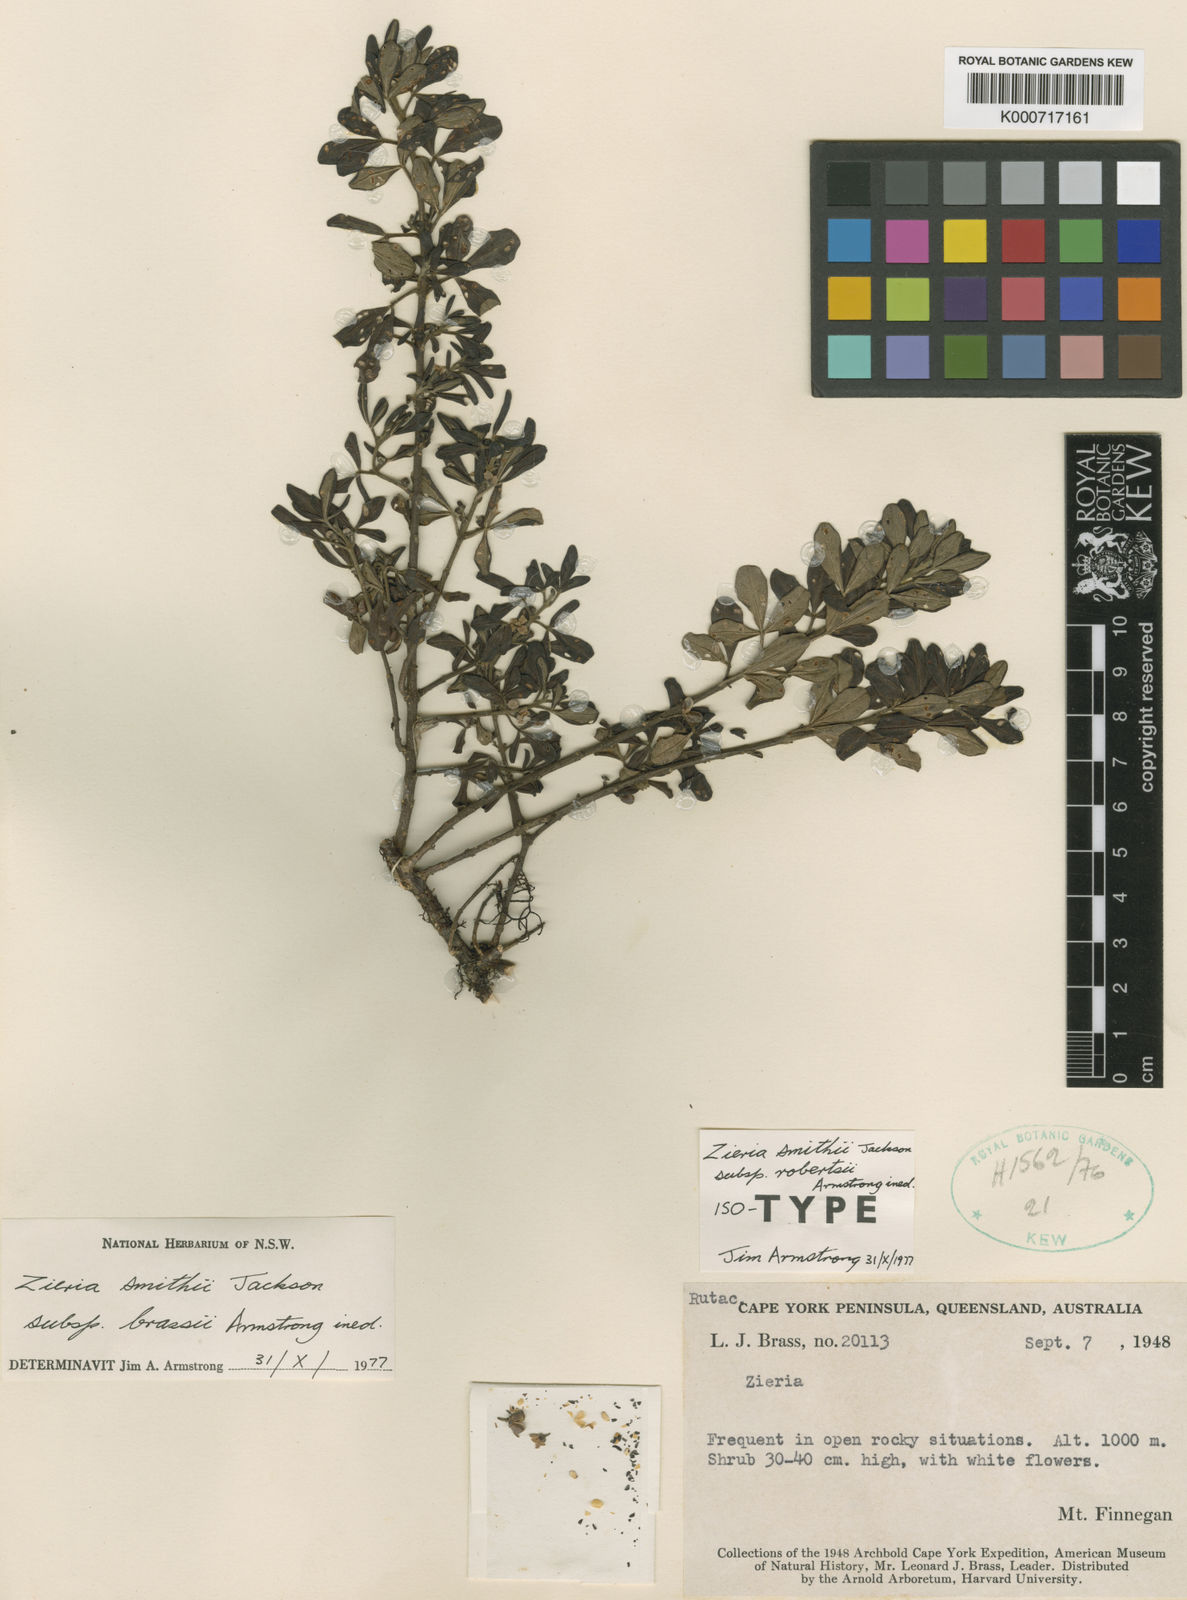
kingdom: Plantae
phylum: Tracheophyta
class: Magnoliopsida
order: Sapindales
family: Rutaceae
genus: Zieria
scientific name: Zieria smithii
